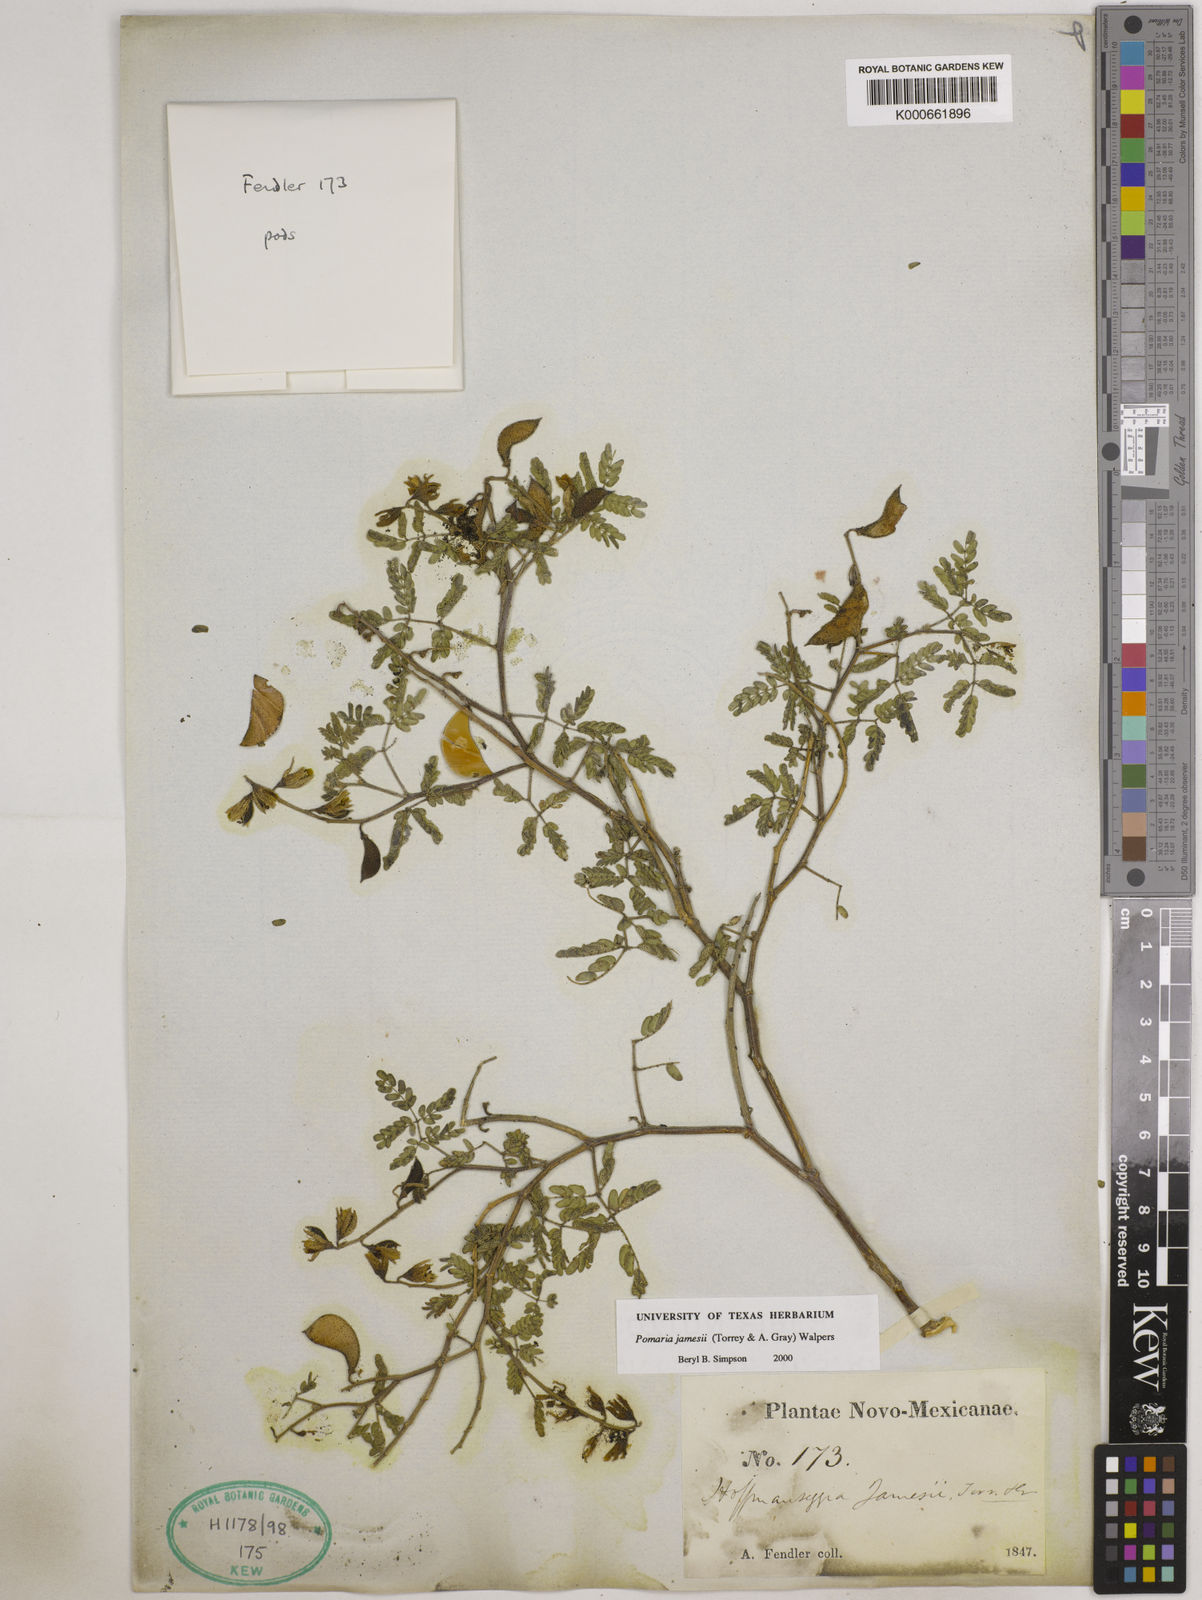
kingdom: Plantae
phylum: Tracheophyta
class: Magnoliopsida
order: Fabales
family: Fabaceae
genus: Pomaria
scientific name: Pomaria jamesii
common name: James' caesalpinia
